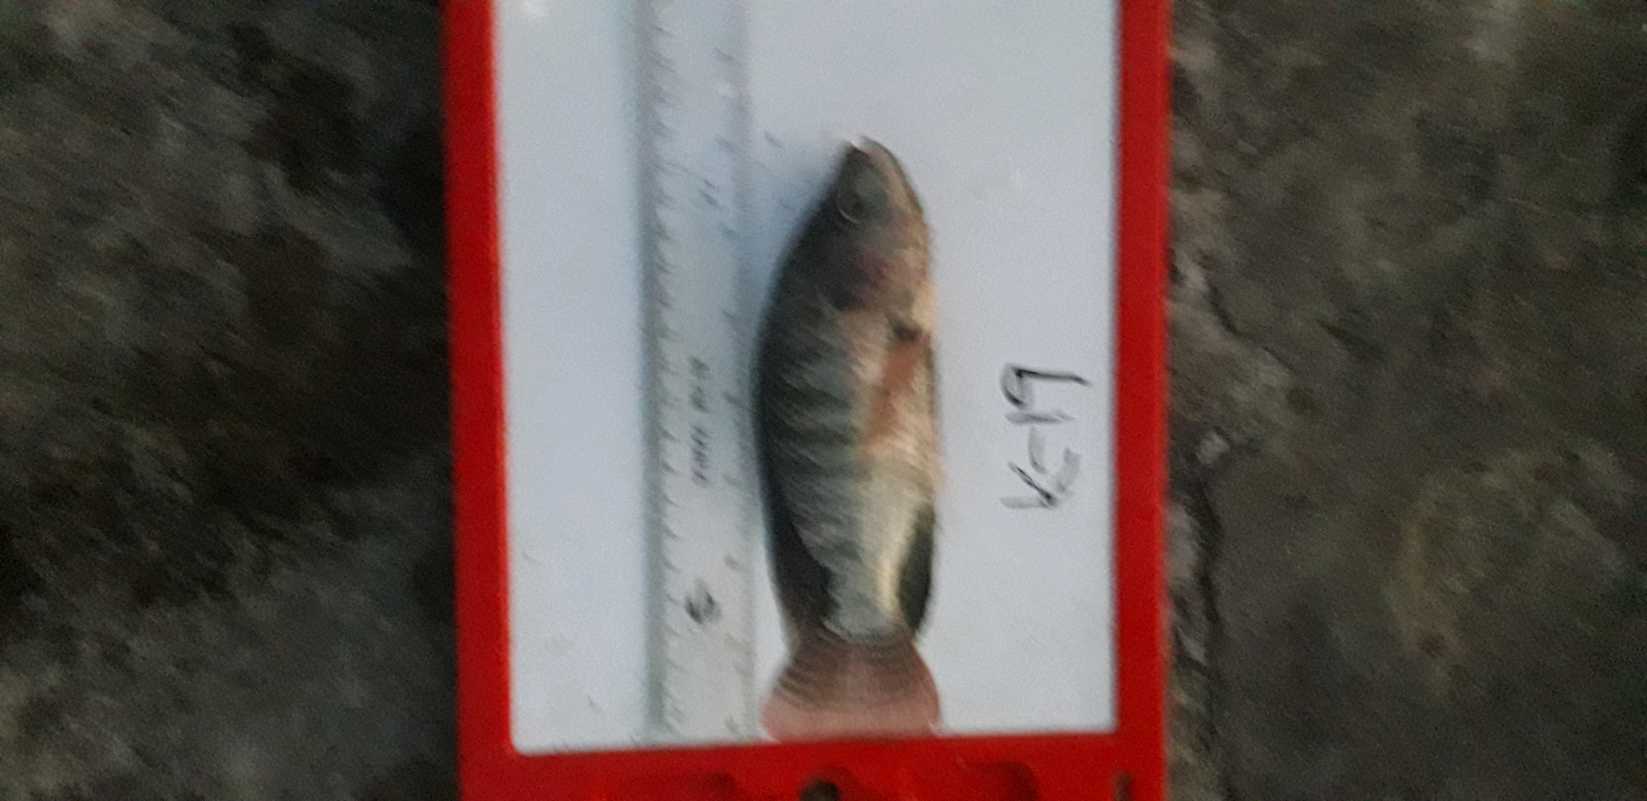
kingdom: Animalia
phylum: Chordata
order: Perciformes
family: Cichlidae
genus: Oreochromis
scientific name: Oreochromis niloticus
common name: Nile tilapia
